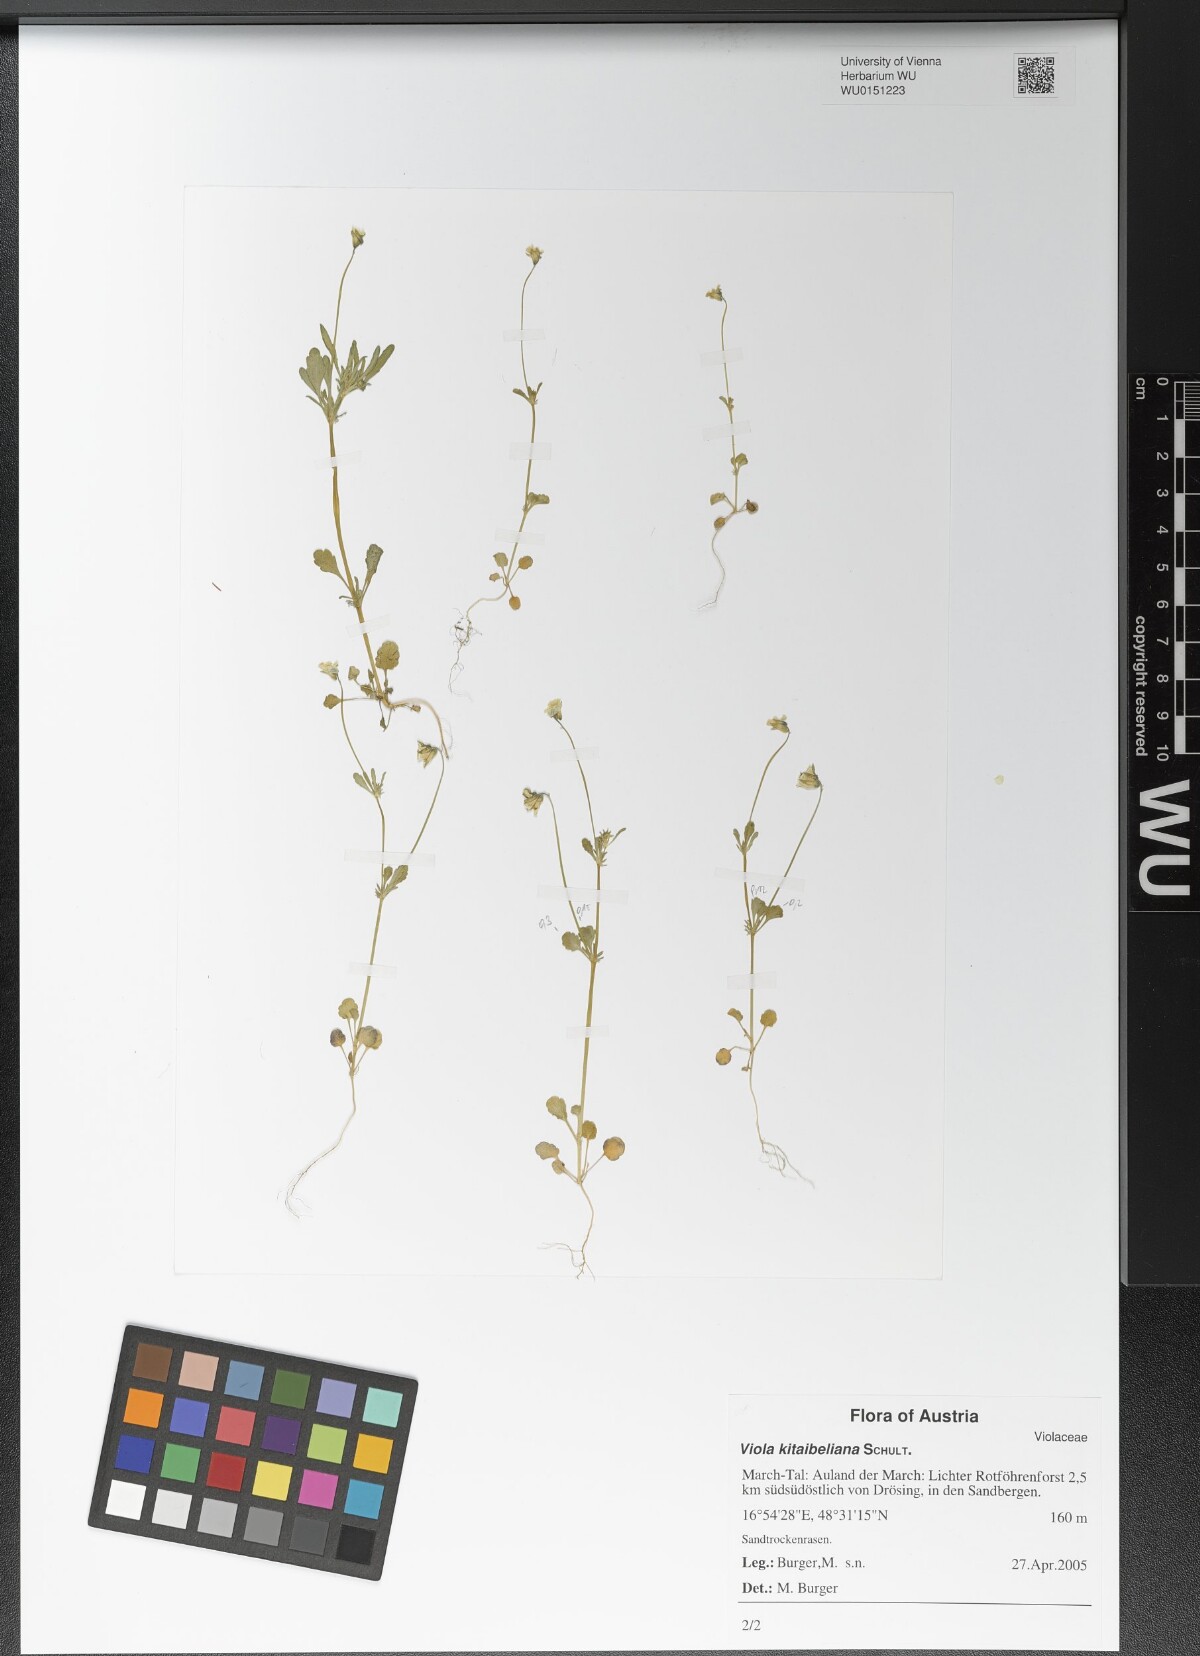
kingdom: Plantae
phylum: Tracheophyta
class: Magnoliopsida
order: Malpighiales
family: Violaceae
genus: Viola
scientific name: Viola kitaibeliana
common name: Dwarf pansy
